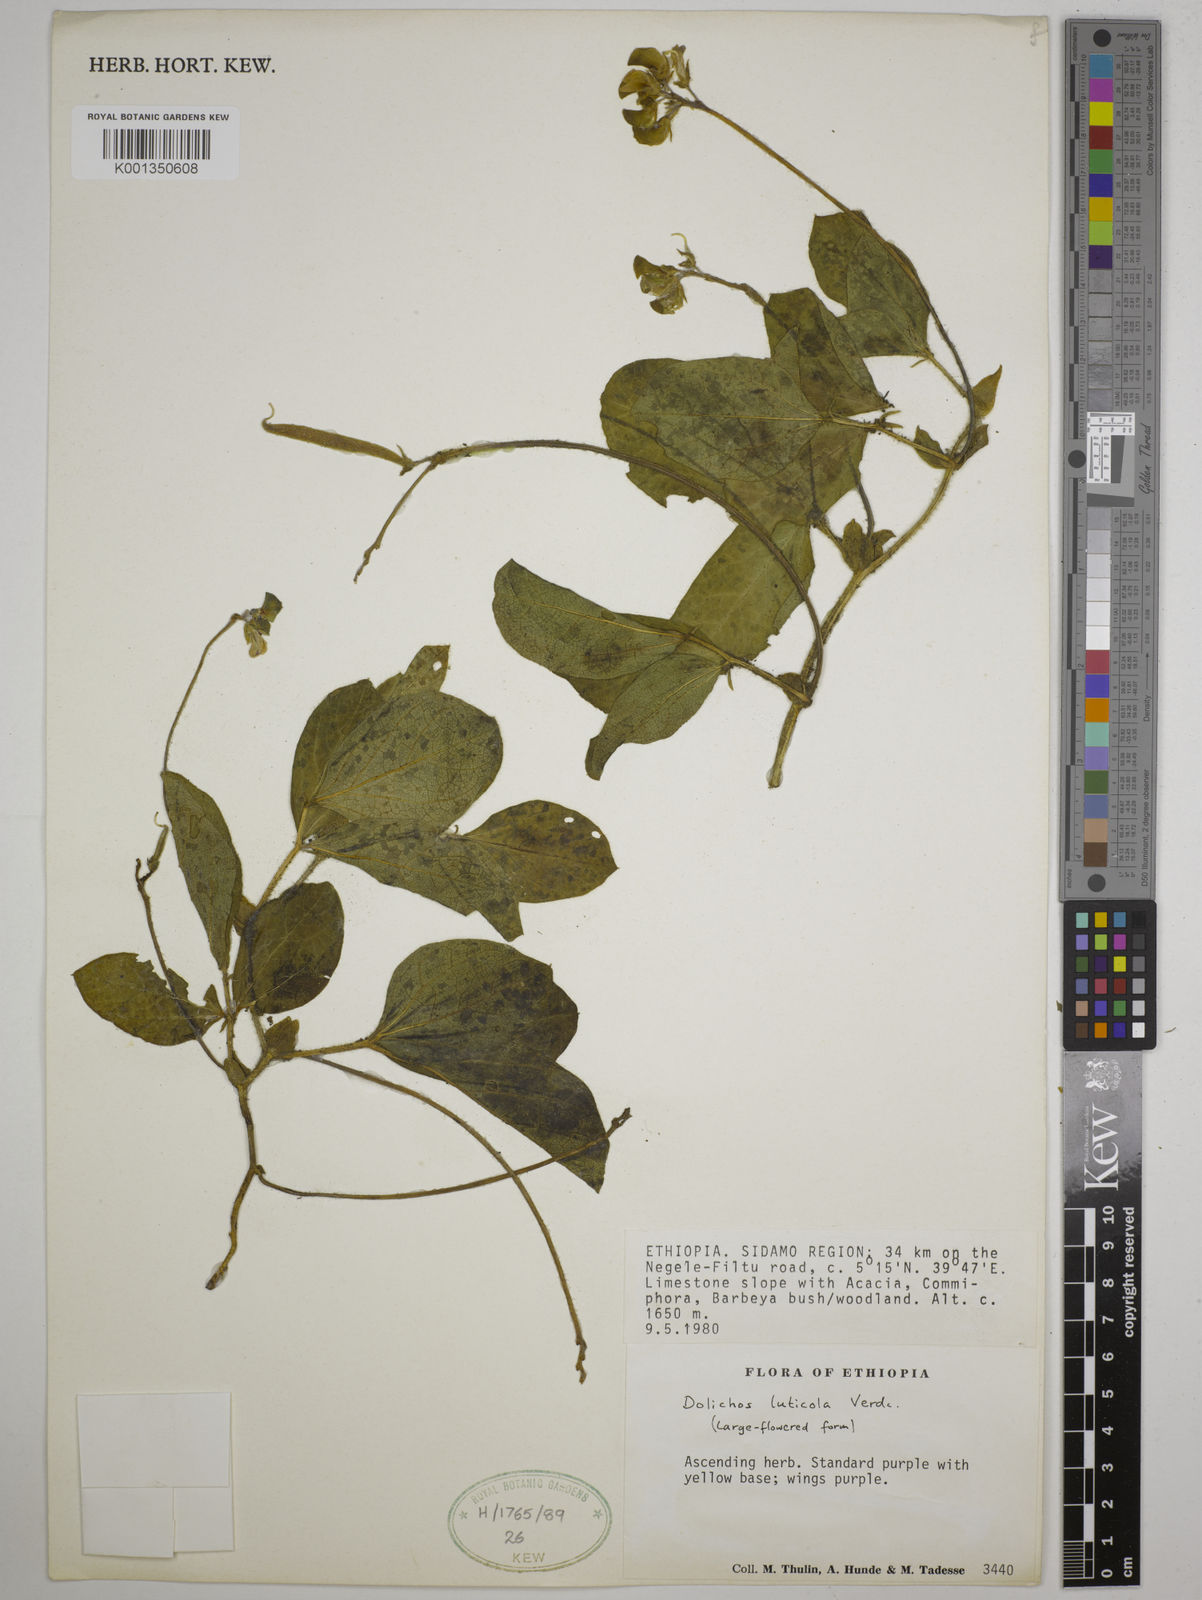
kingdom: Plantae
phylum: Tracheophyta
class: Magnoliopsida
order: Fabales
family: Fabaceae
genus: Dolichos
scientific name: Dolichos luticola
